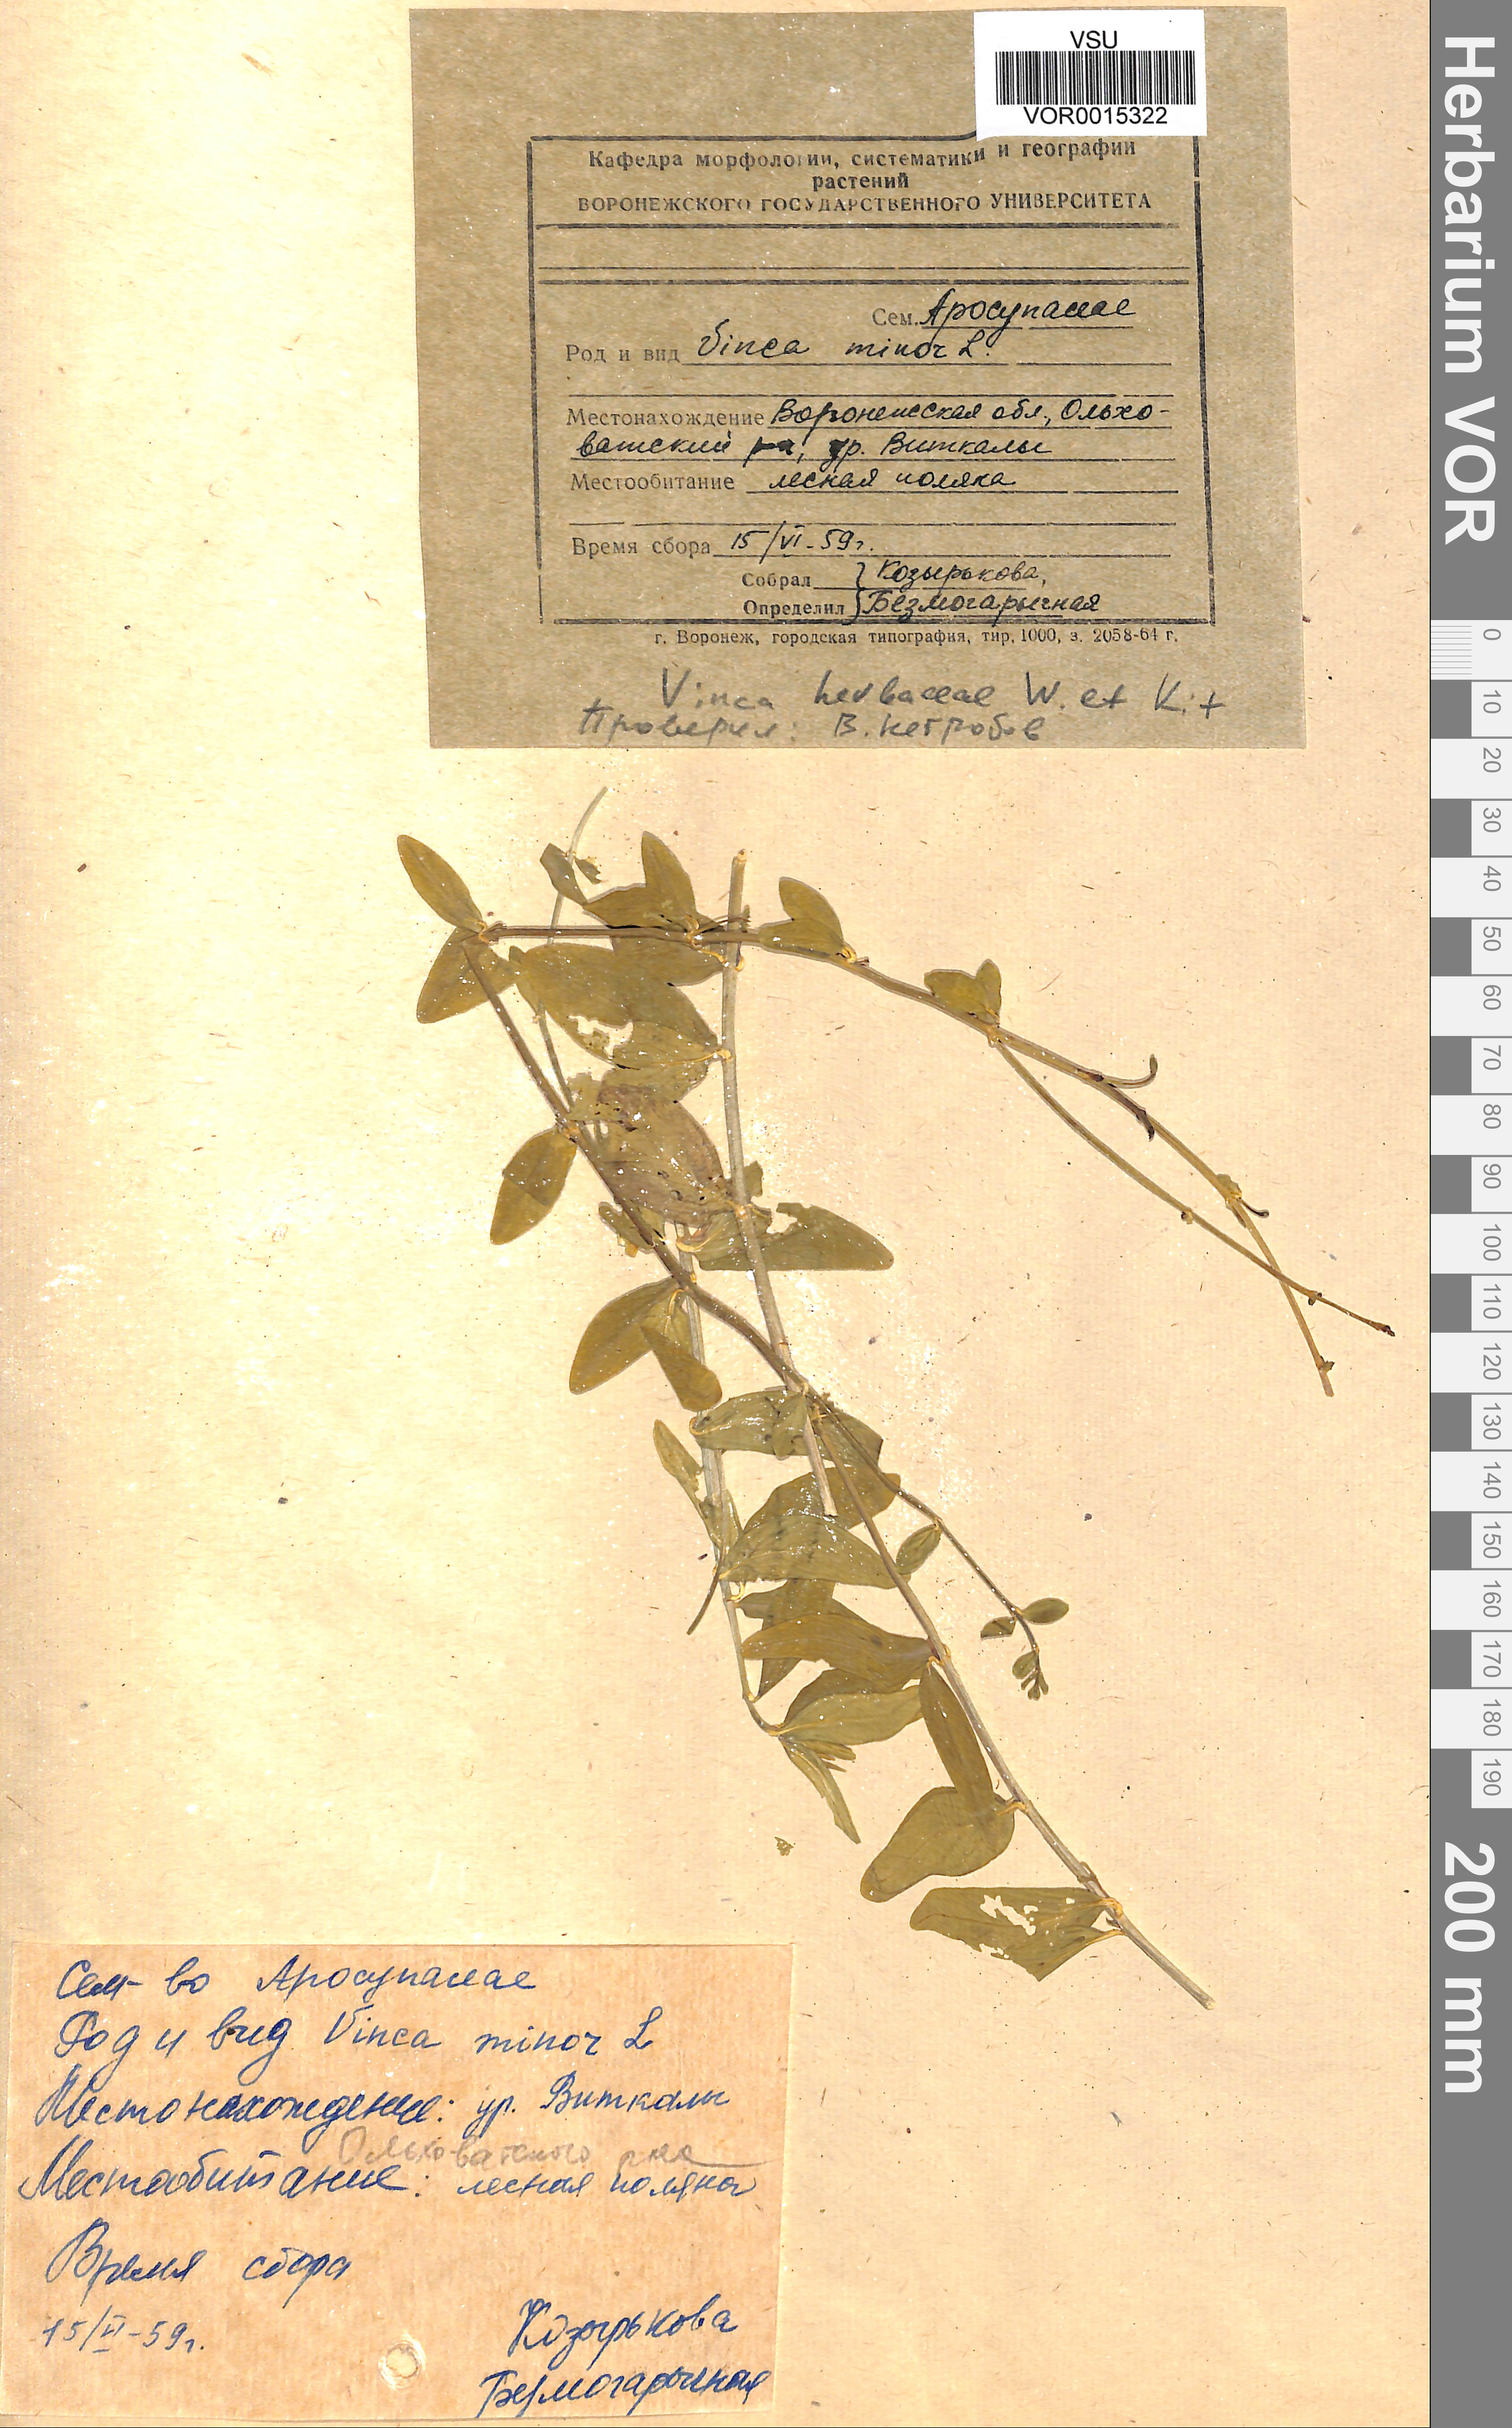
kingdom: Plantae
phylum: Tracheophyta
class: Magnoliopsida
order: Gentianales
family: Apocynaceae
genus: Vinca
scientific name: Vinca herbacea
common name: Herbaceous periwinkle
